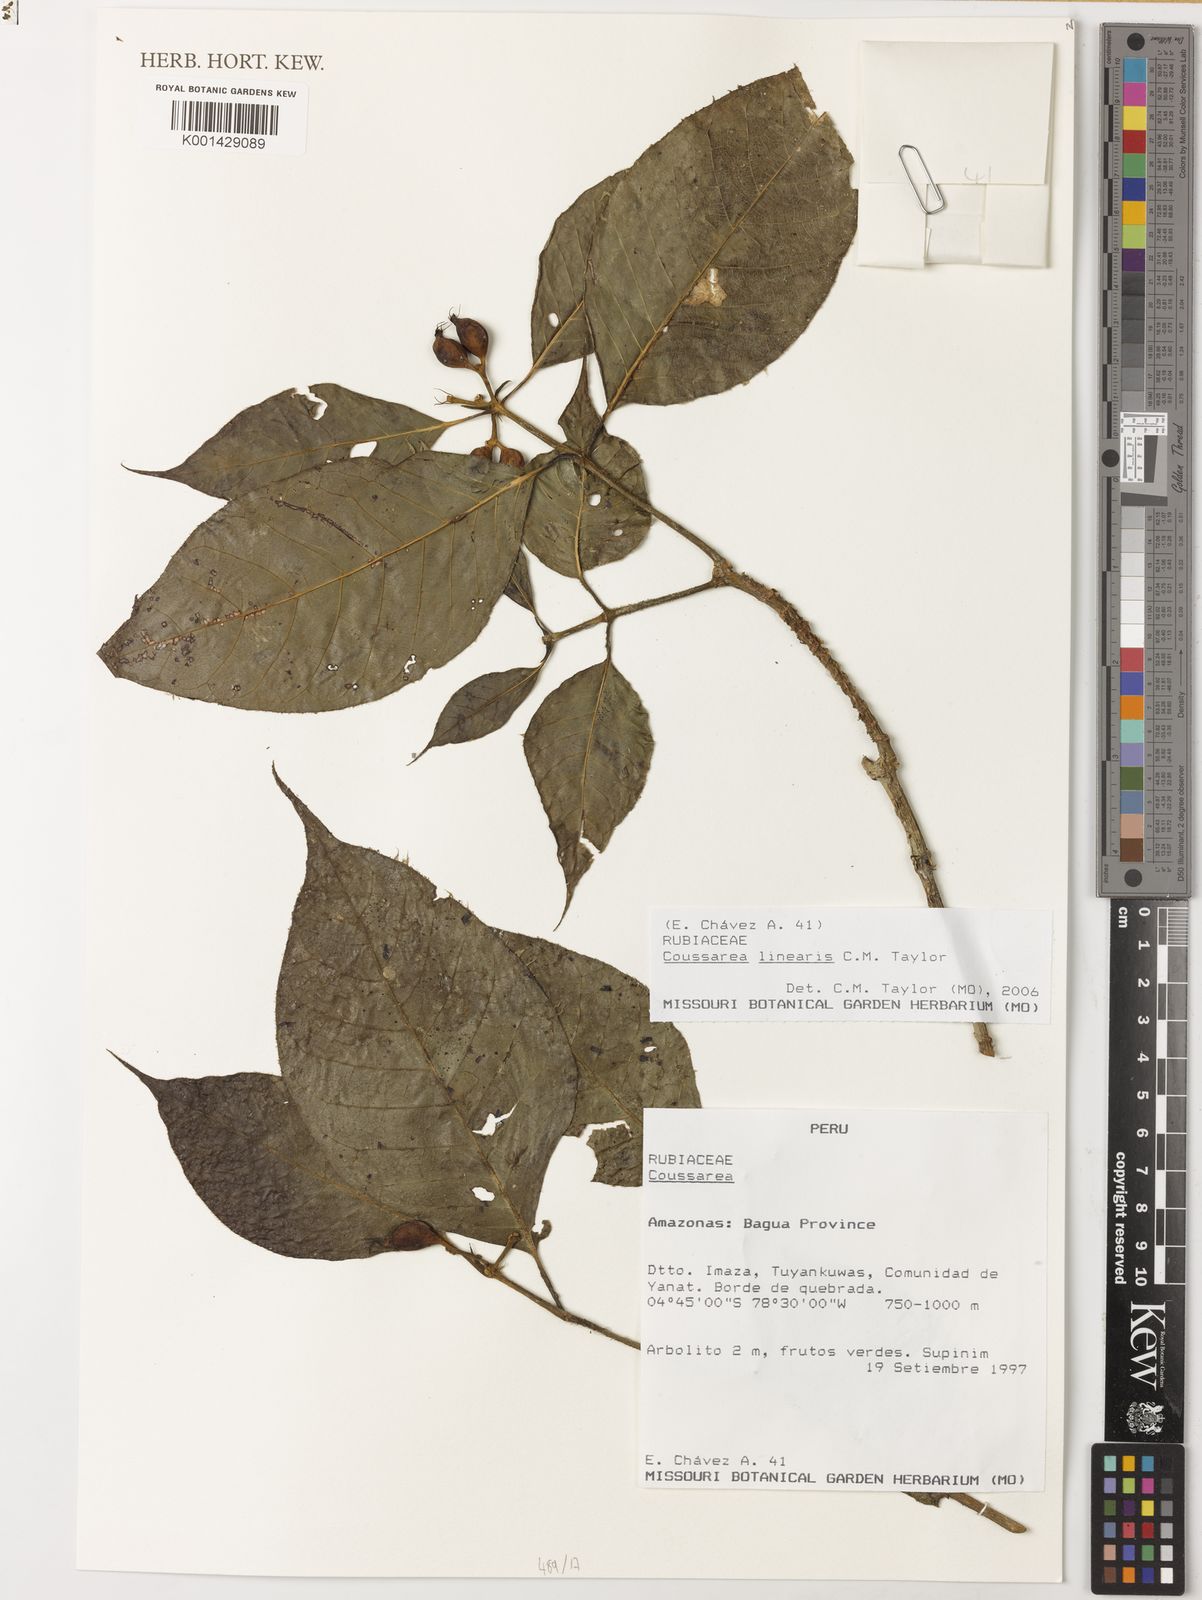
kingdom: Plantae
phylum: Tracheophyta
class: Magnoliopsida
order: Gentianales
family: Rubiaceae
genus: Coussarea
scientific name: Coussarea linearis
